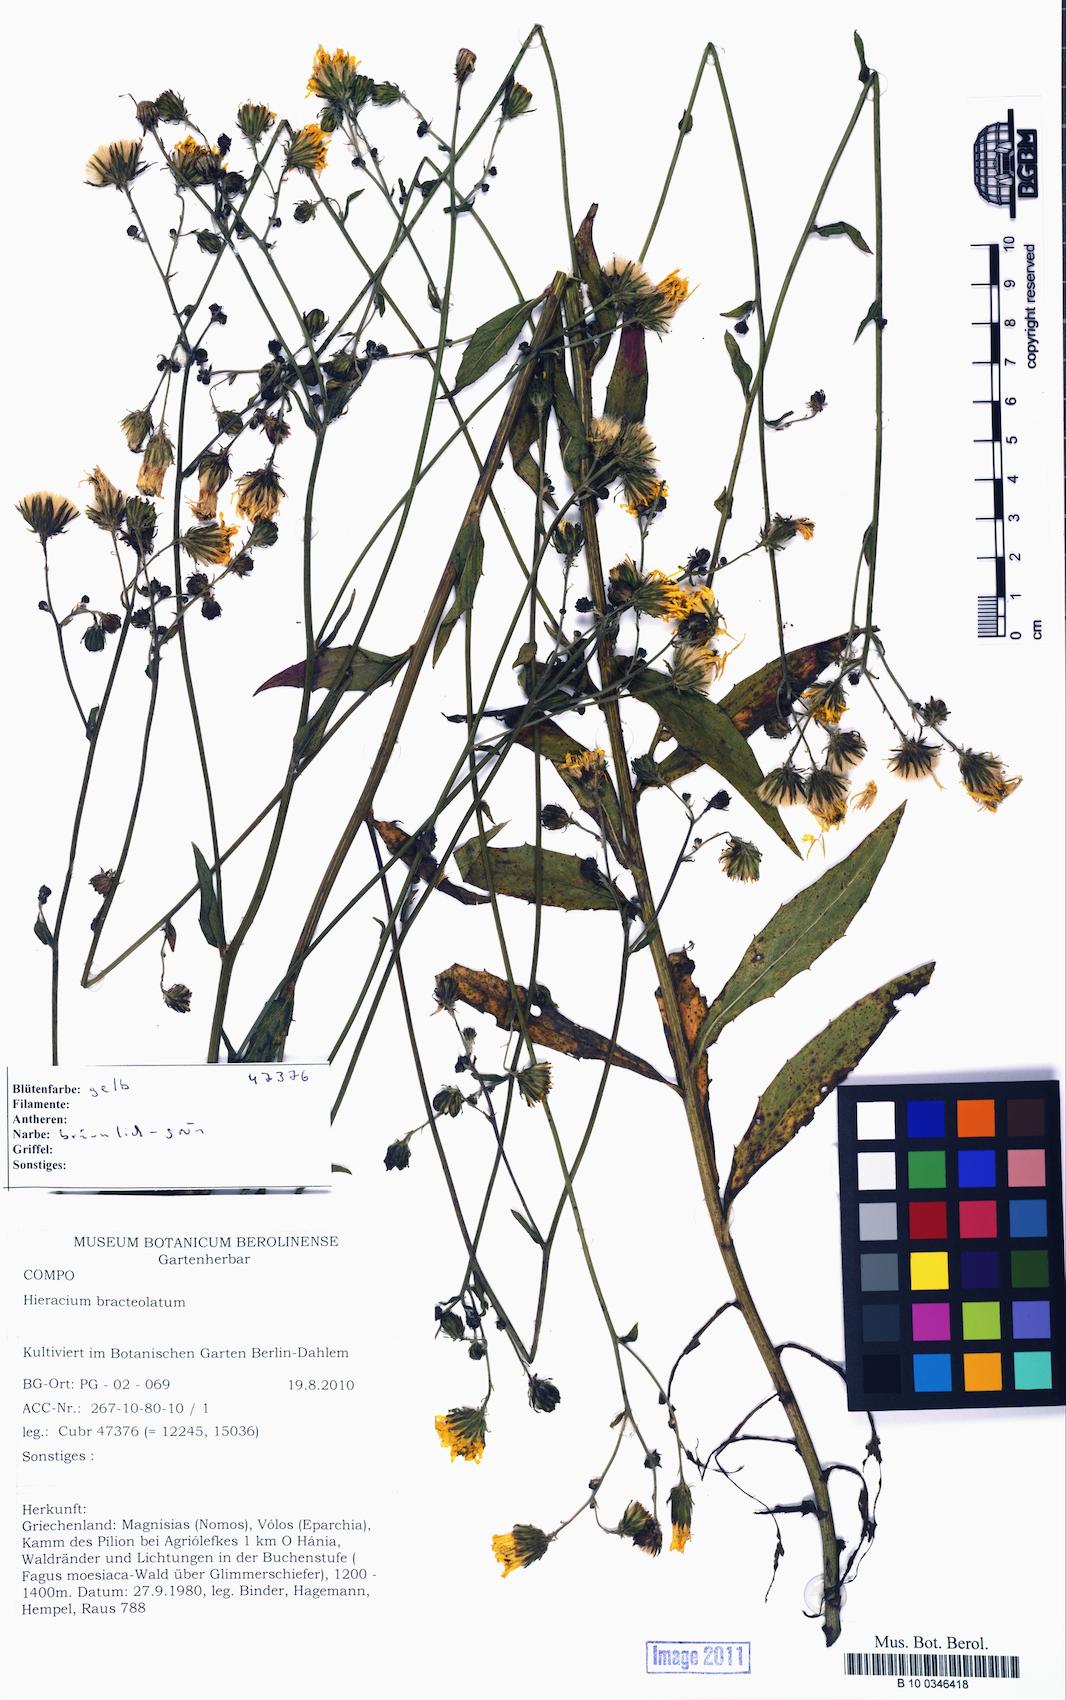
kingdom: Plantae
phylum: Tracheophyta
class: Magnoliopsida
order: Asterales
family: Asteraceae
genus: Crepis
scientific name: Crepis athoa
